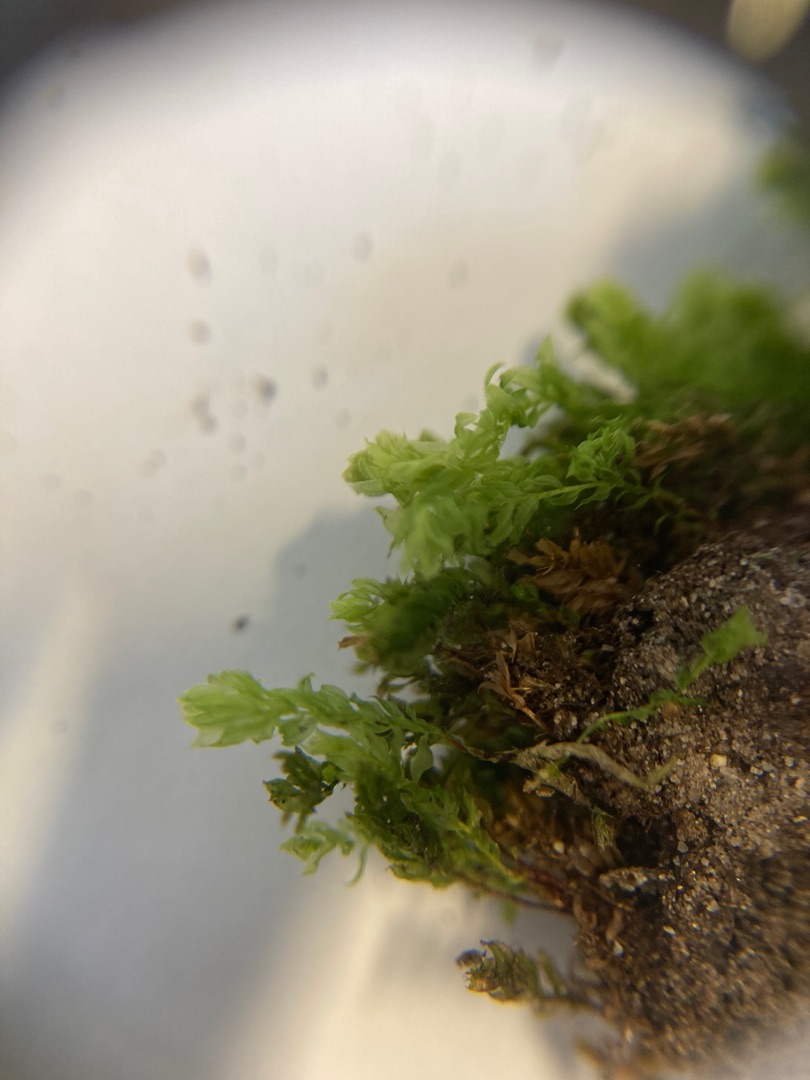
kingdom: Plantae
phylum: Bryophyta
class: Bryopsida
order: Bryales
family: Mniaceae
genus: Mnium
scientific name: Mnium hornum
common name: Brunfiltet stjernemos
